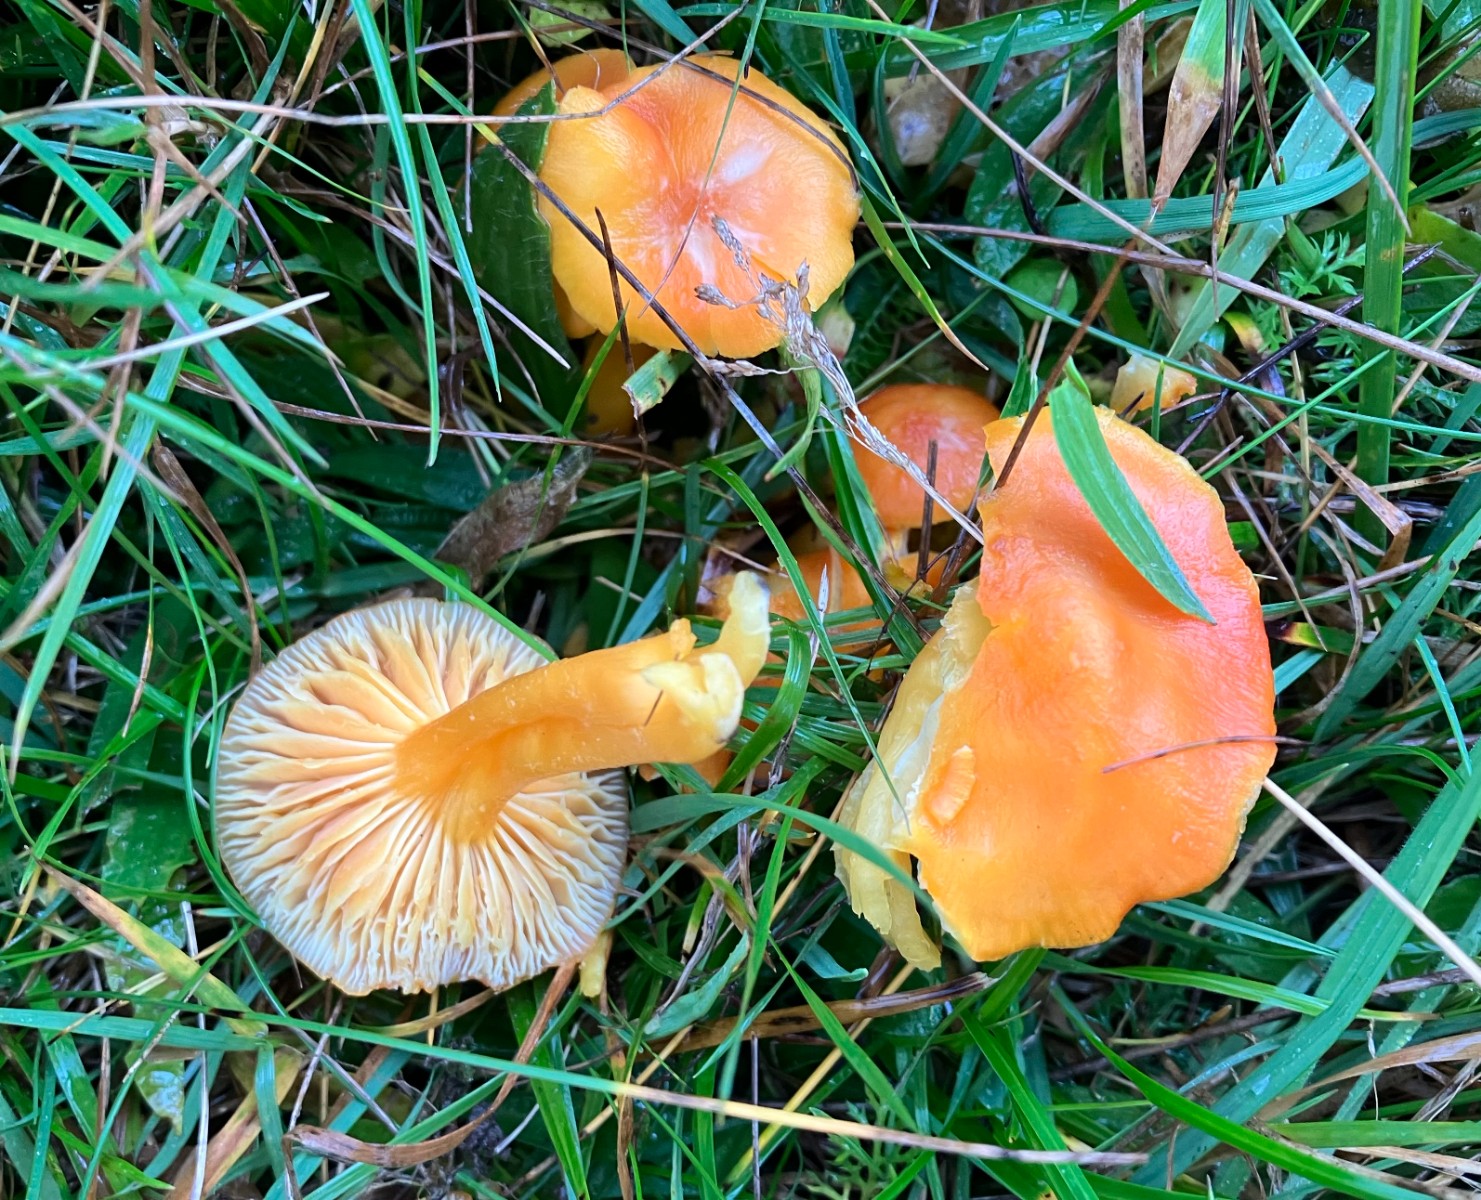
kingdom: Fungi
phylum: Basidiomycota
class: Agaricomycetes
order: Agaricales
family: Hygrophoraceae
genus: Hygrocybe
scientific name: Hygrocybe reidii
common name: honning-vokshat
